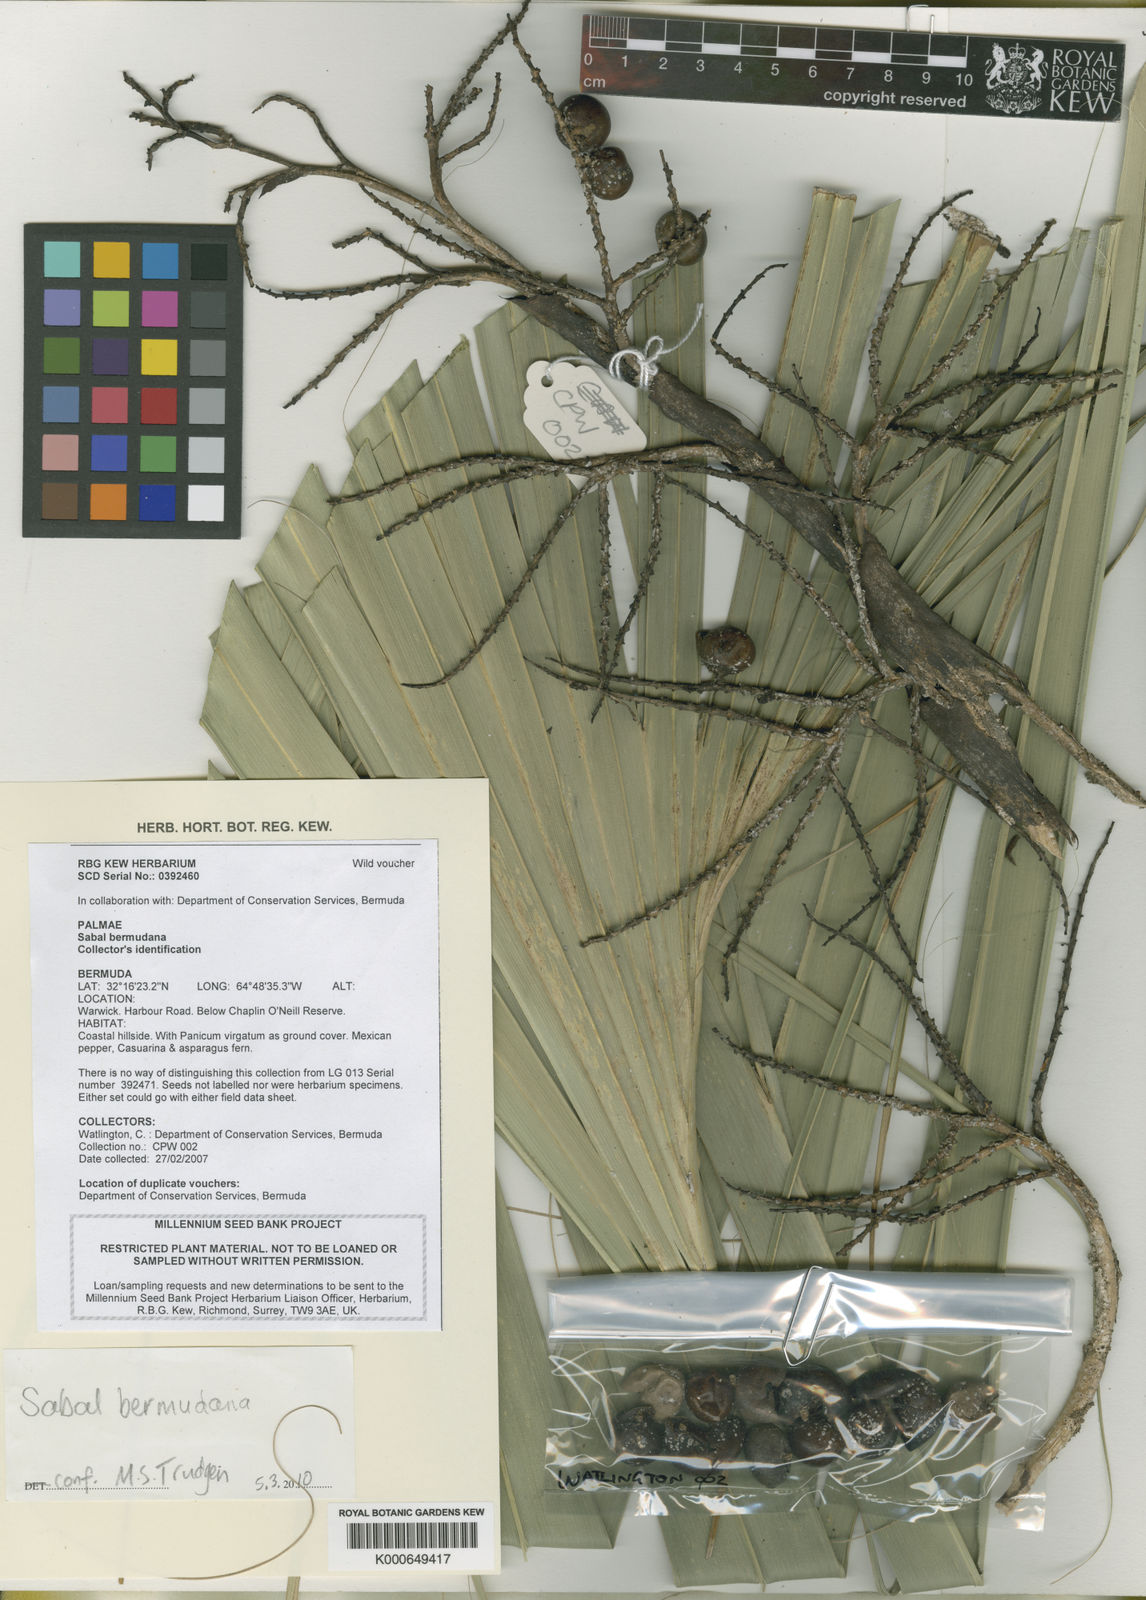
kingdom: Plantae
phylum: Tracheophyta
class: Liliopsida
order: Arecales
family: Arecaceae
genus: Sabal
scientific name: Sabal bermudana
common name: Bermuda palm
